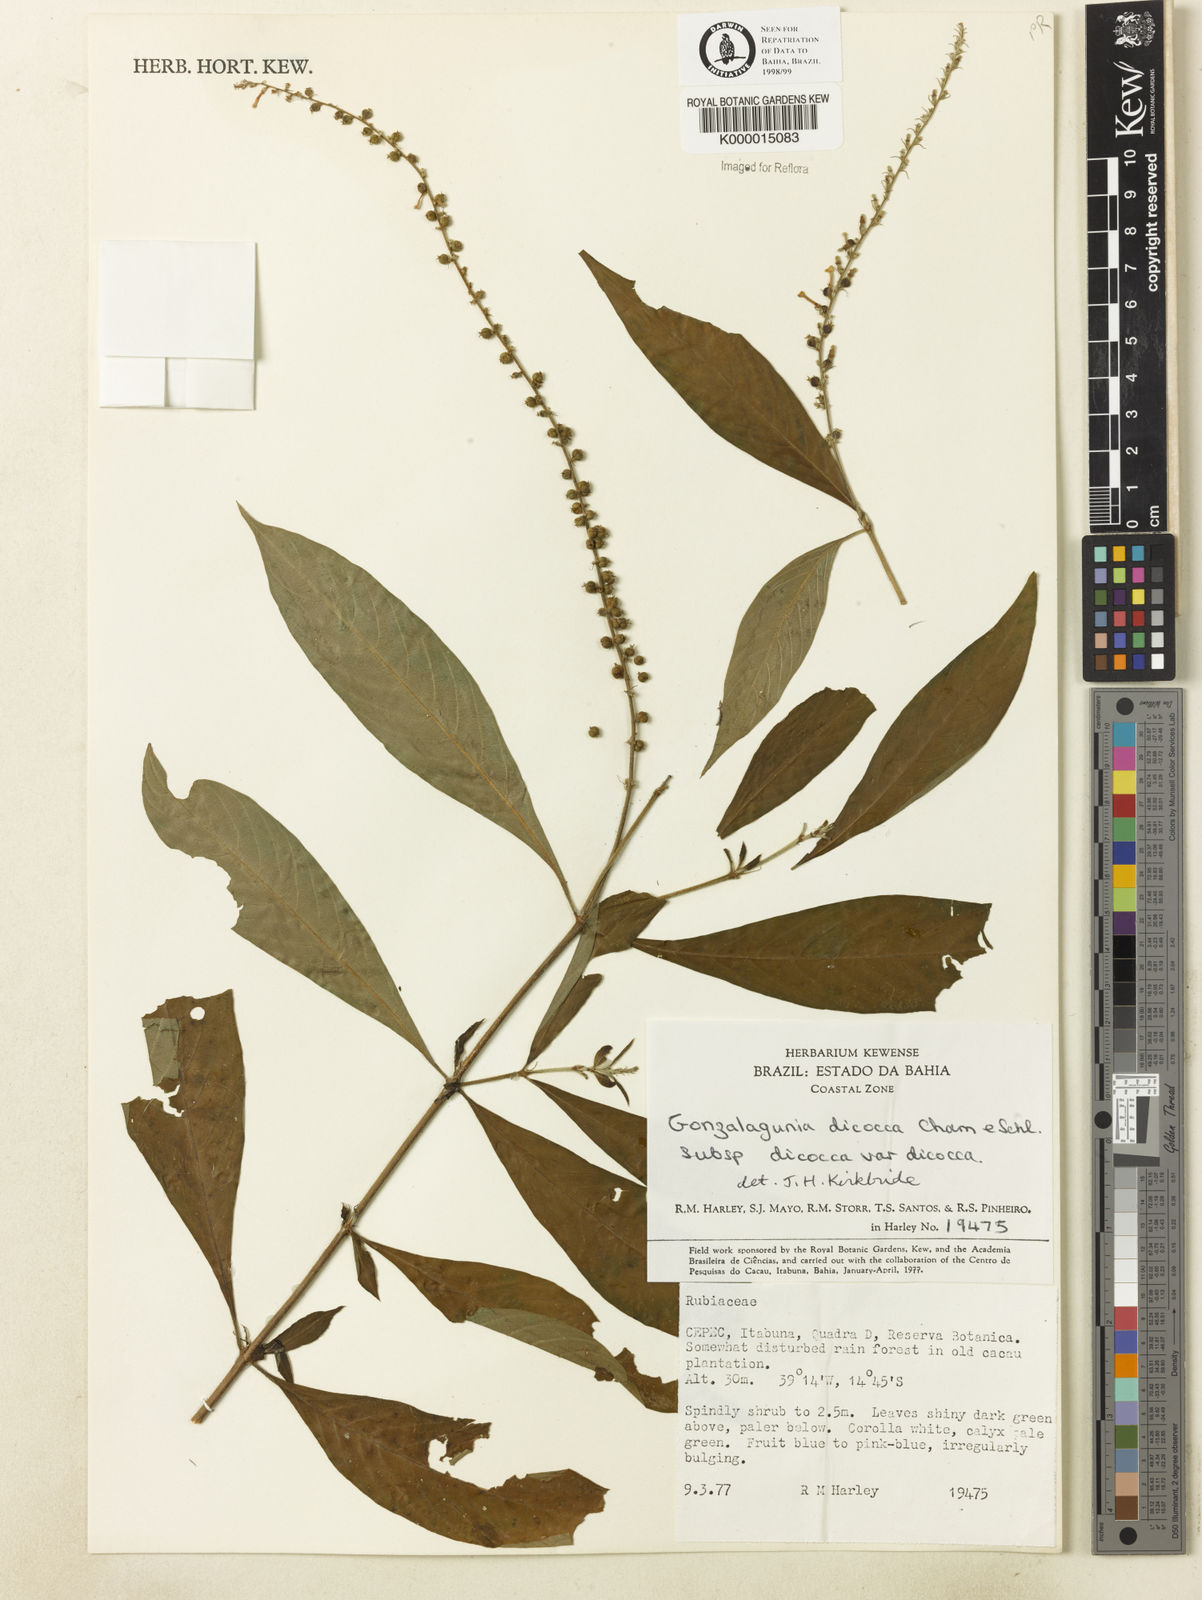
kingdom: Plantae
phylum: Tracheophyta
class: Magnoliopsida
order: Gentianales
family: Rubiaceae
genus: Gonzalagunia
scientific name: Gonzalagunia dicocca
